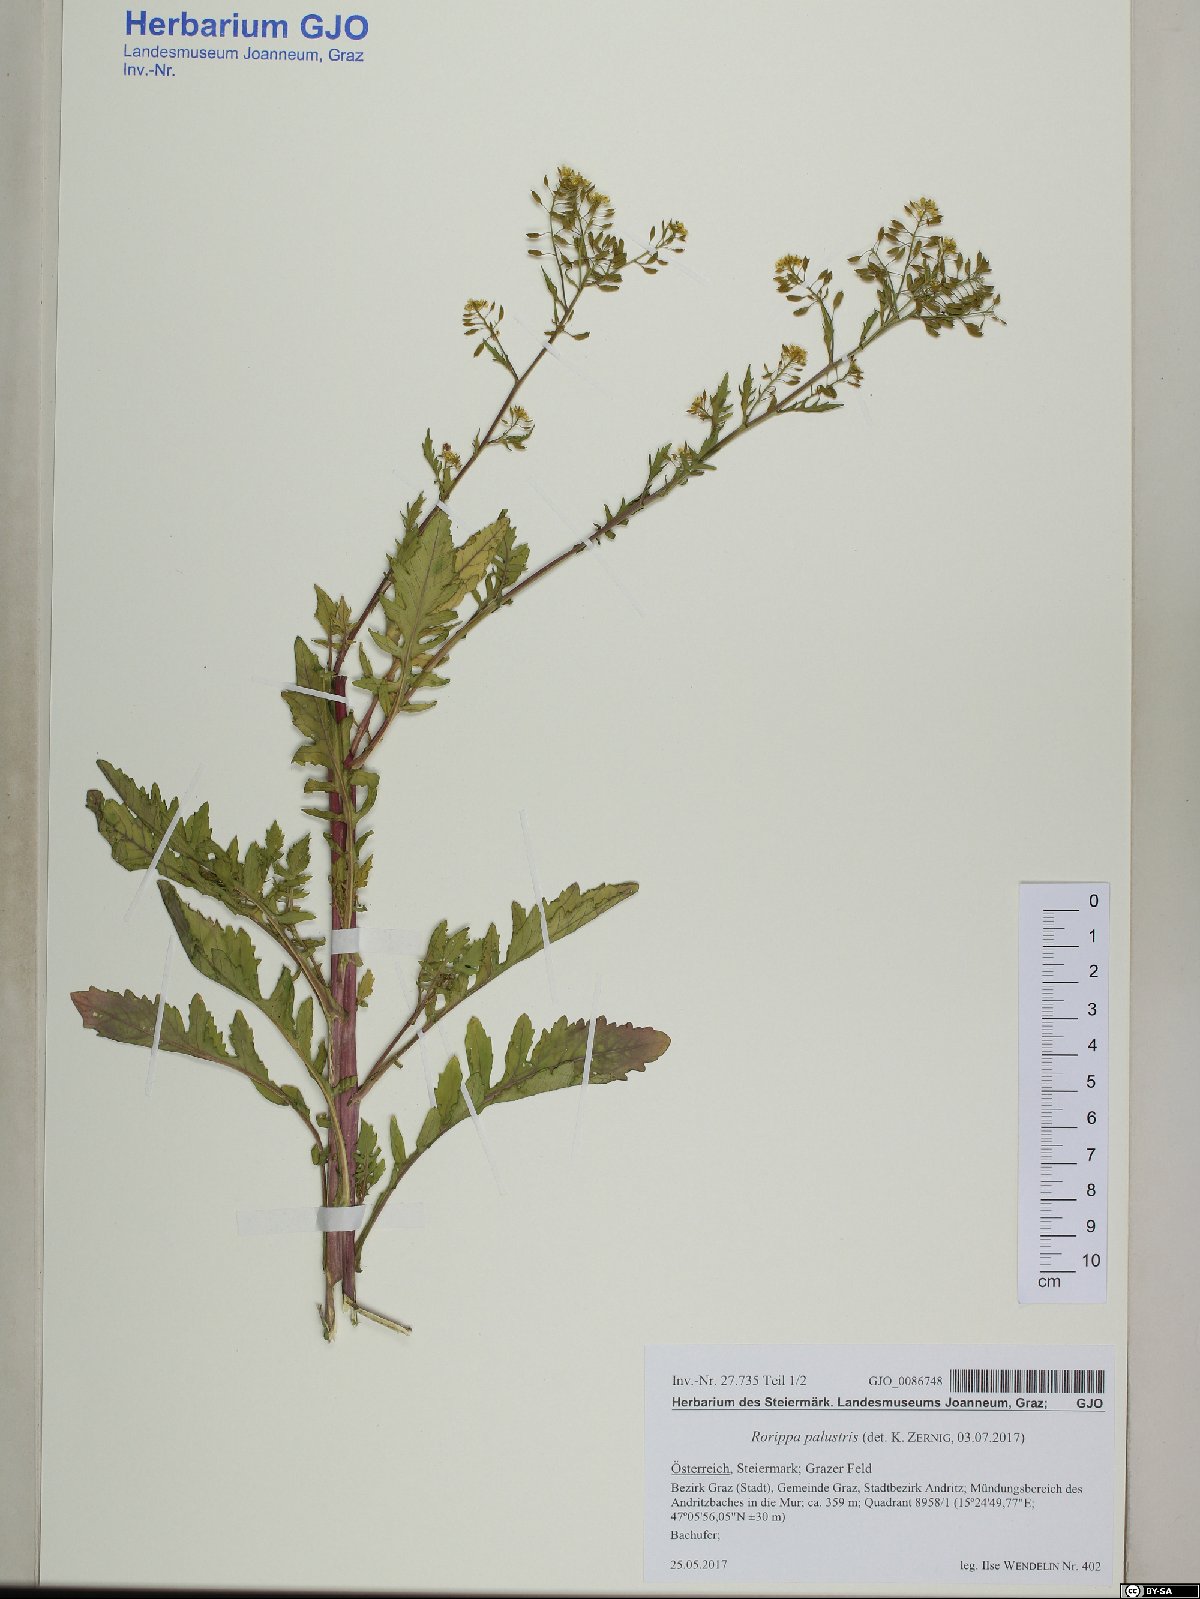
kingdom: Plantae
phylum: Tracheophyta
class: Magnoliopsida
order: Brassicales
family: Brassicaceae
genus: Rorippa
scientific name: Rorippa palustris
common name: Marsh yellow-cress
